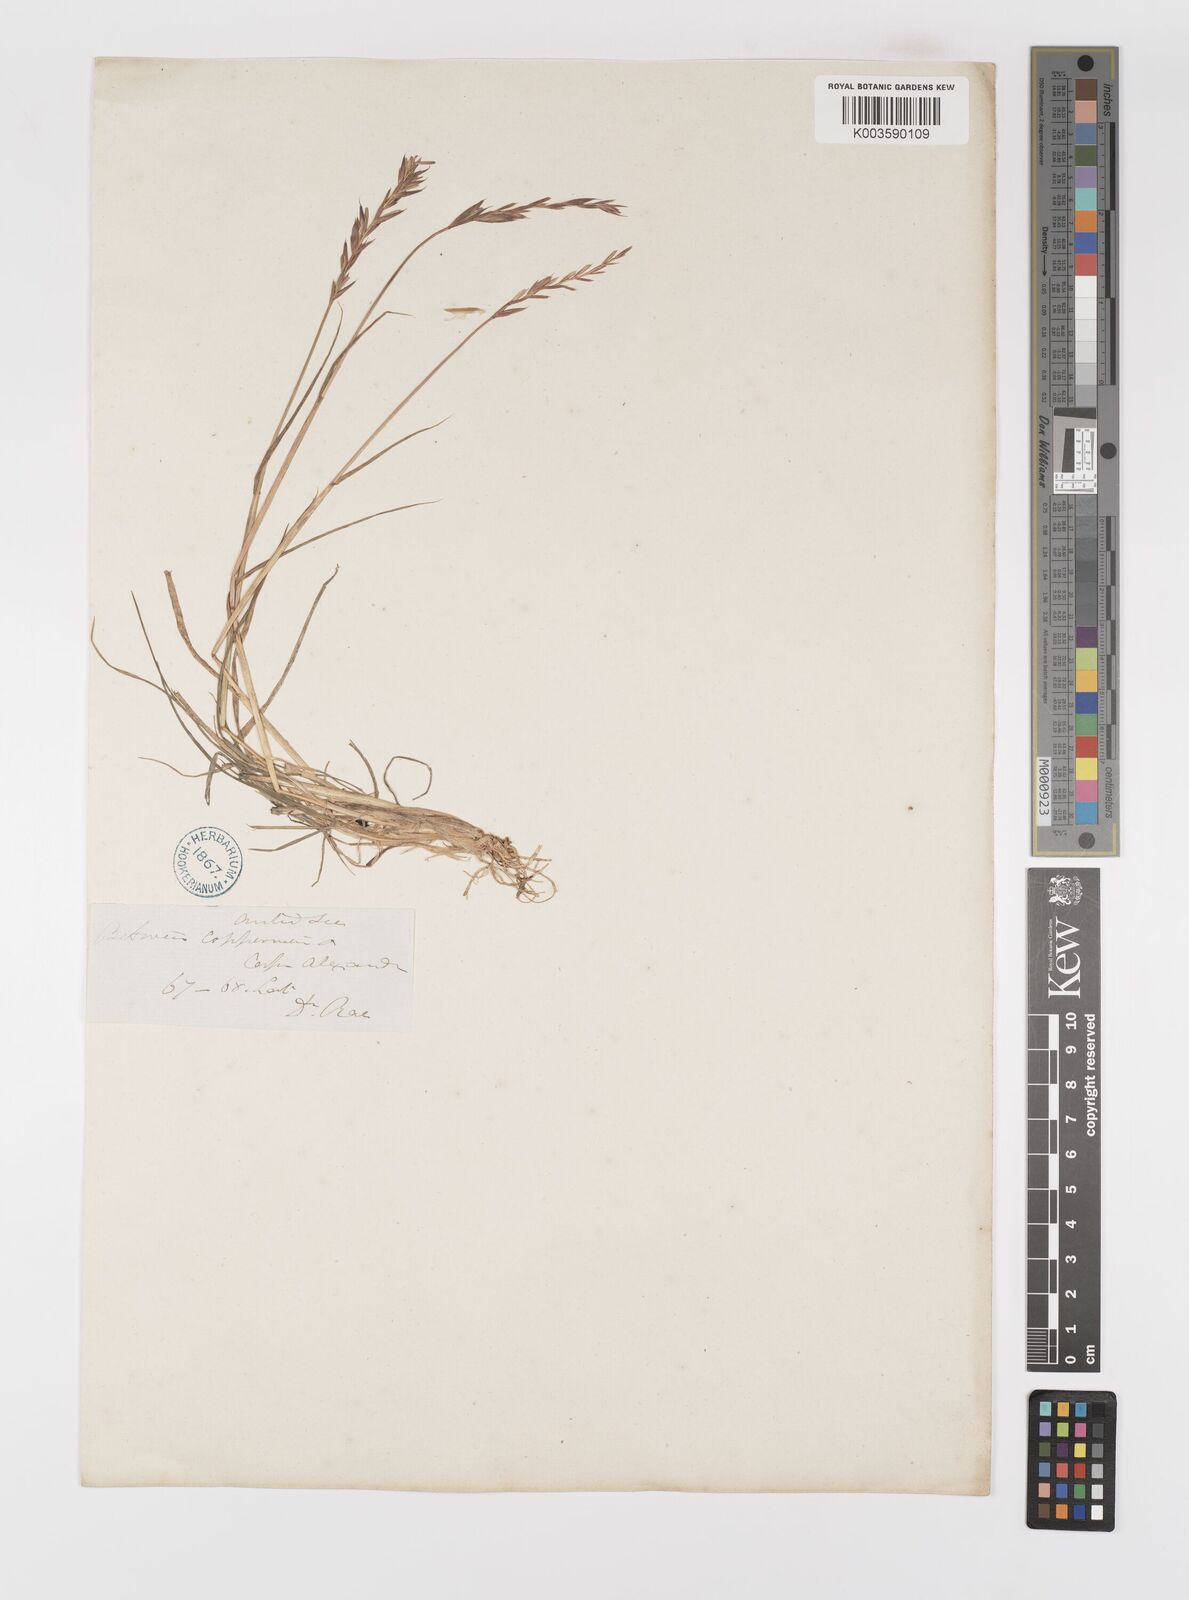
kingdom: Plantae
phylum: Tracheophyta
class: Liliopsida
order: Poales
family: Poaceae
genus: Elymus
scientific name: Elymus repens
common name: Quackgrass
